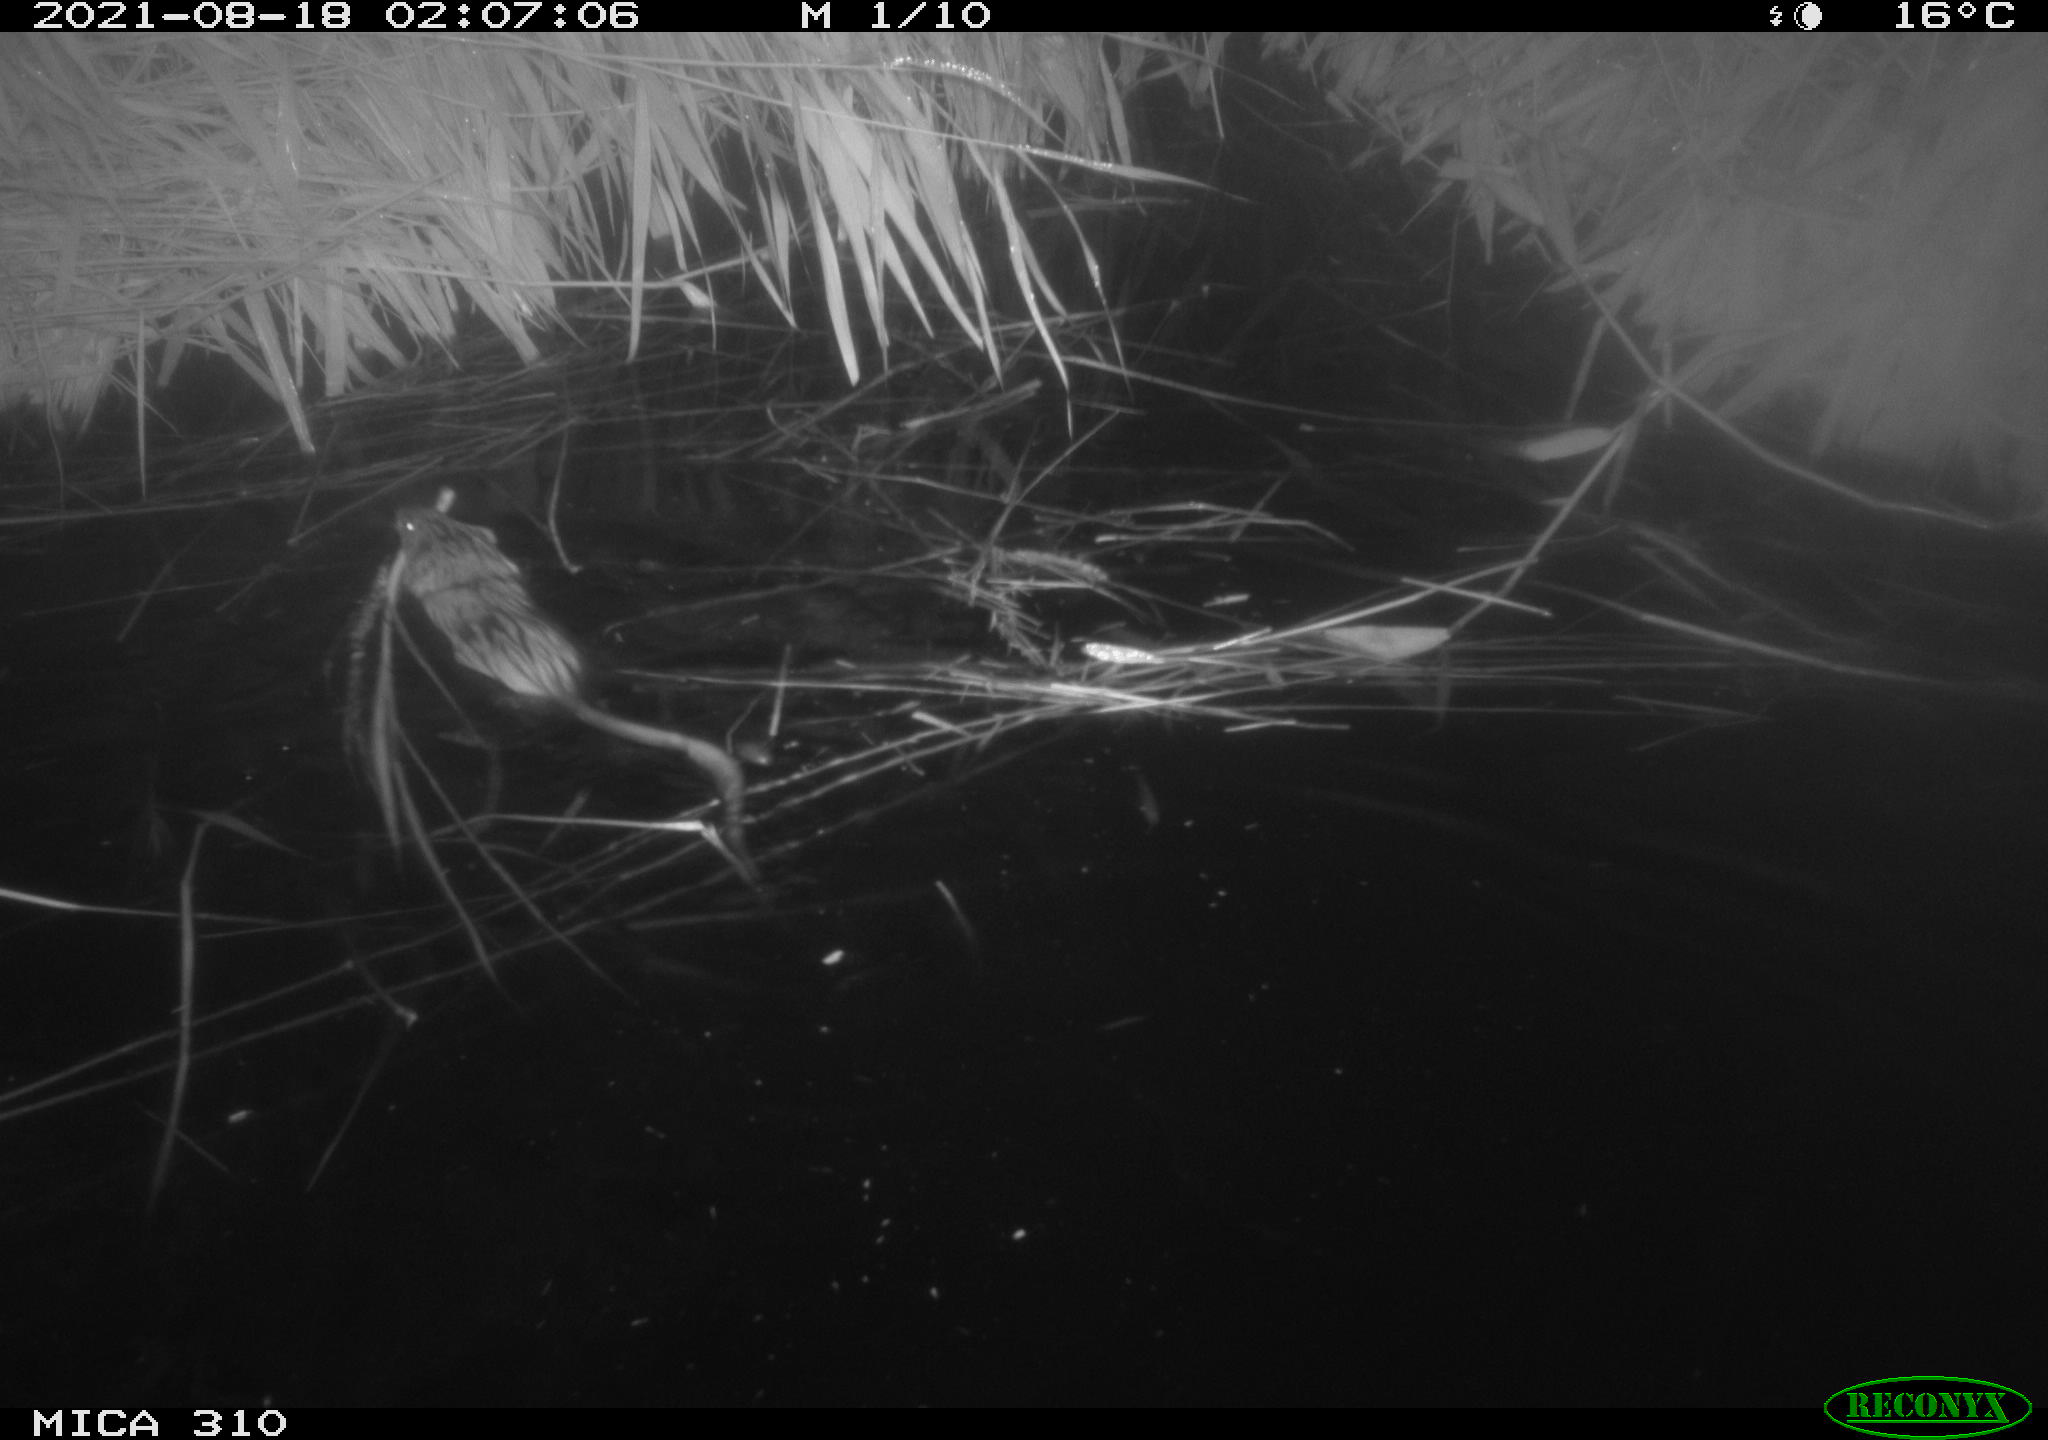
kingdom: Animalia
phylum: Chordata
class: Mammalia
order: Rodentia
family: Cricetidae
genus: Ondatra
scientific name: Ondatra zibethicus
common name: Muskrat
